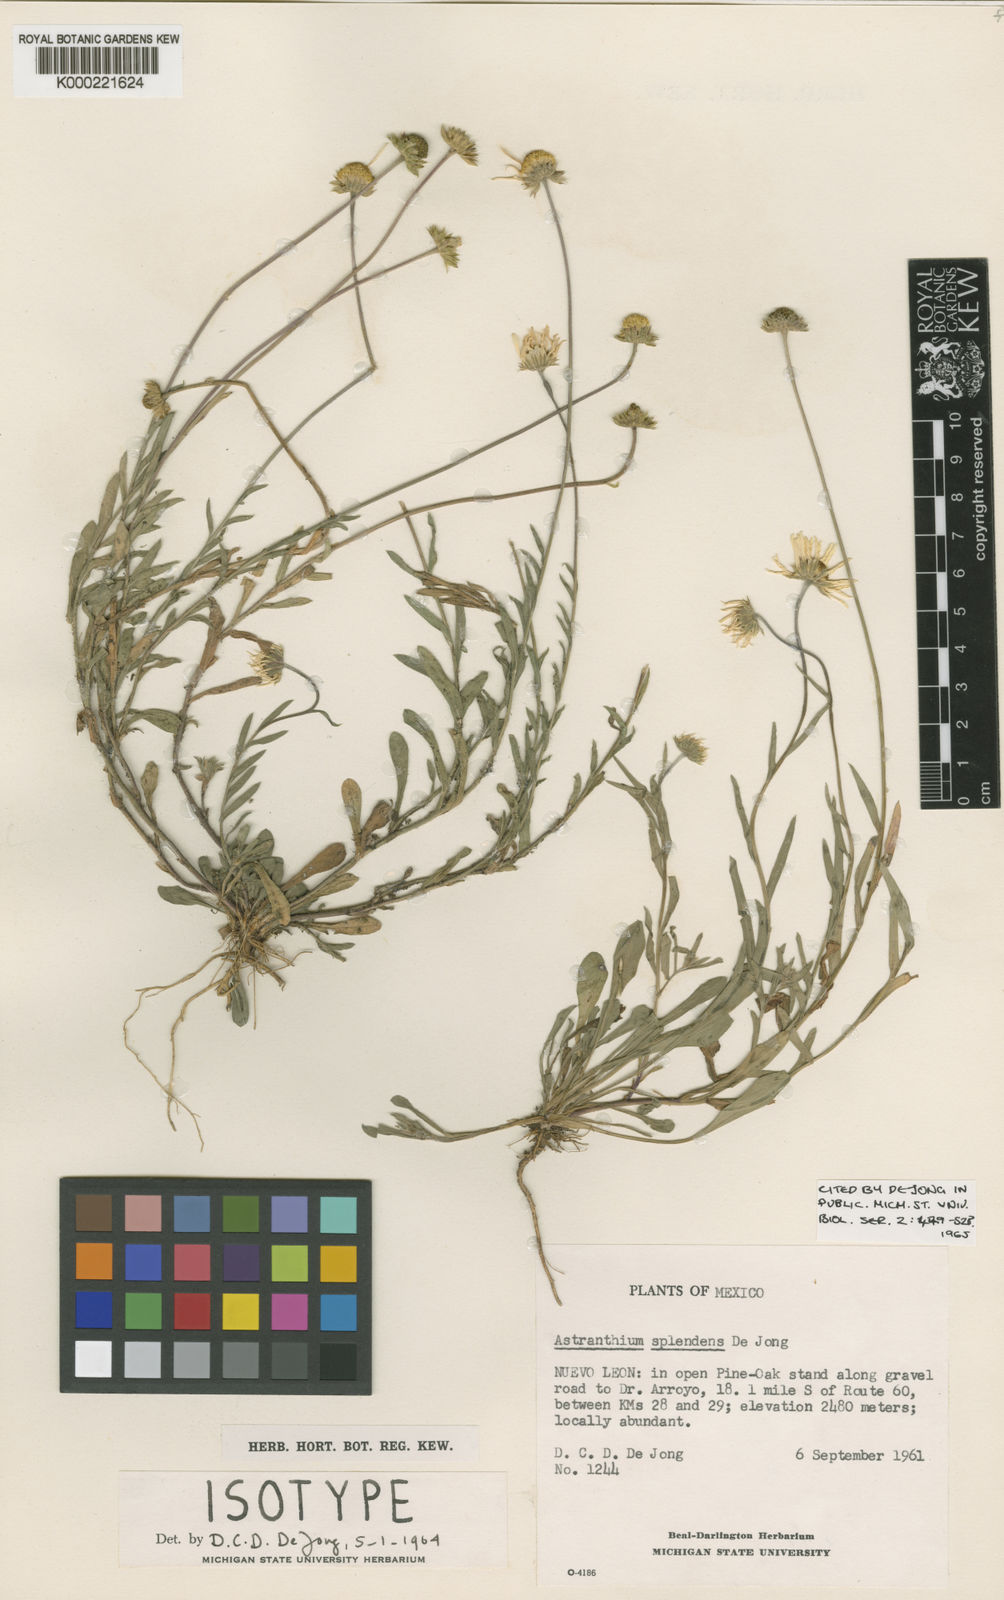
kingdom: Plantae
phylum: Tracheophyta
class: Magnoliopsida
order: Asterales
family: Asteraceae
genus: Astranthium
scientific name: Astranthium splendens
